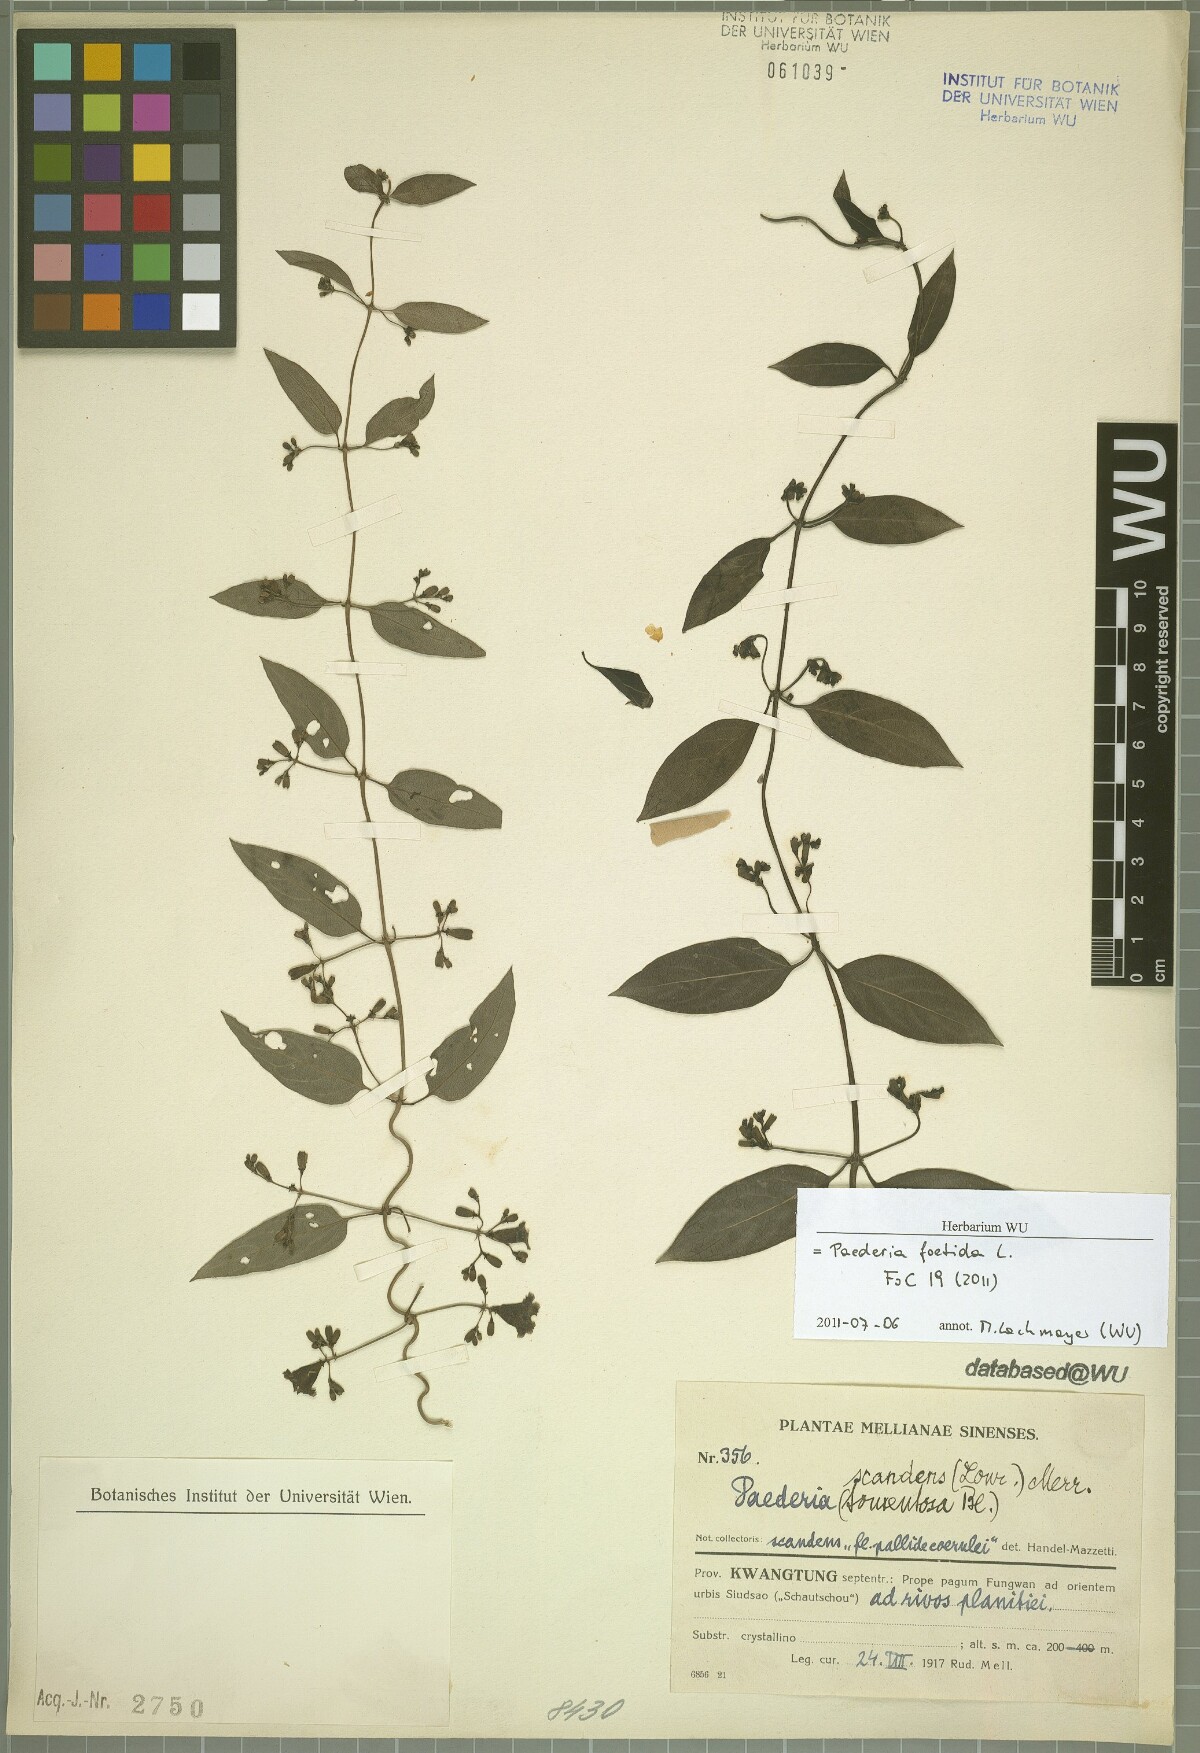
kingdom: Plantae
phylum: Tracheophyta
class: Magnoliopsida
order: Gentianales
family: Rubiaceae
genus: Paederia
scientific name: Paederia foetida
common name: Stinkvine
